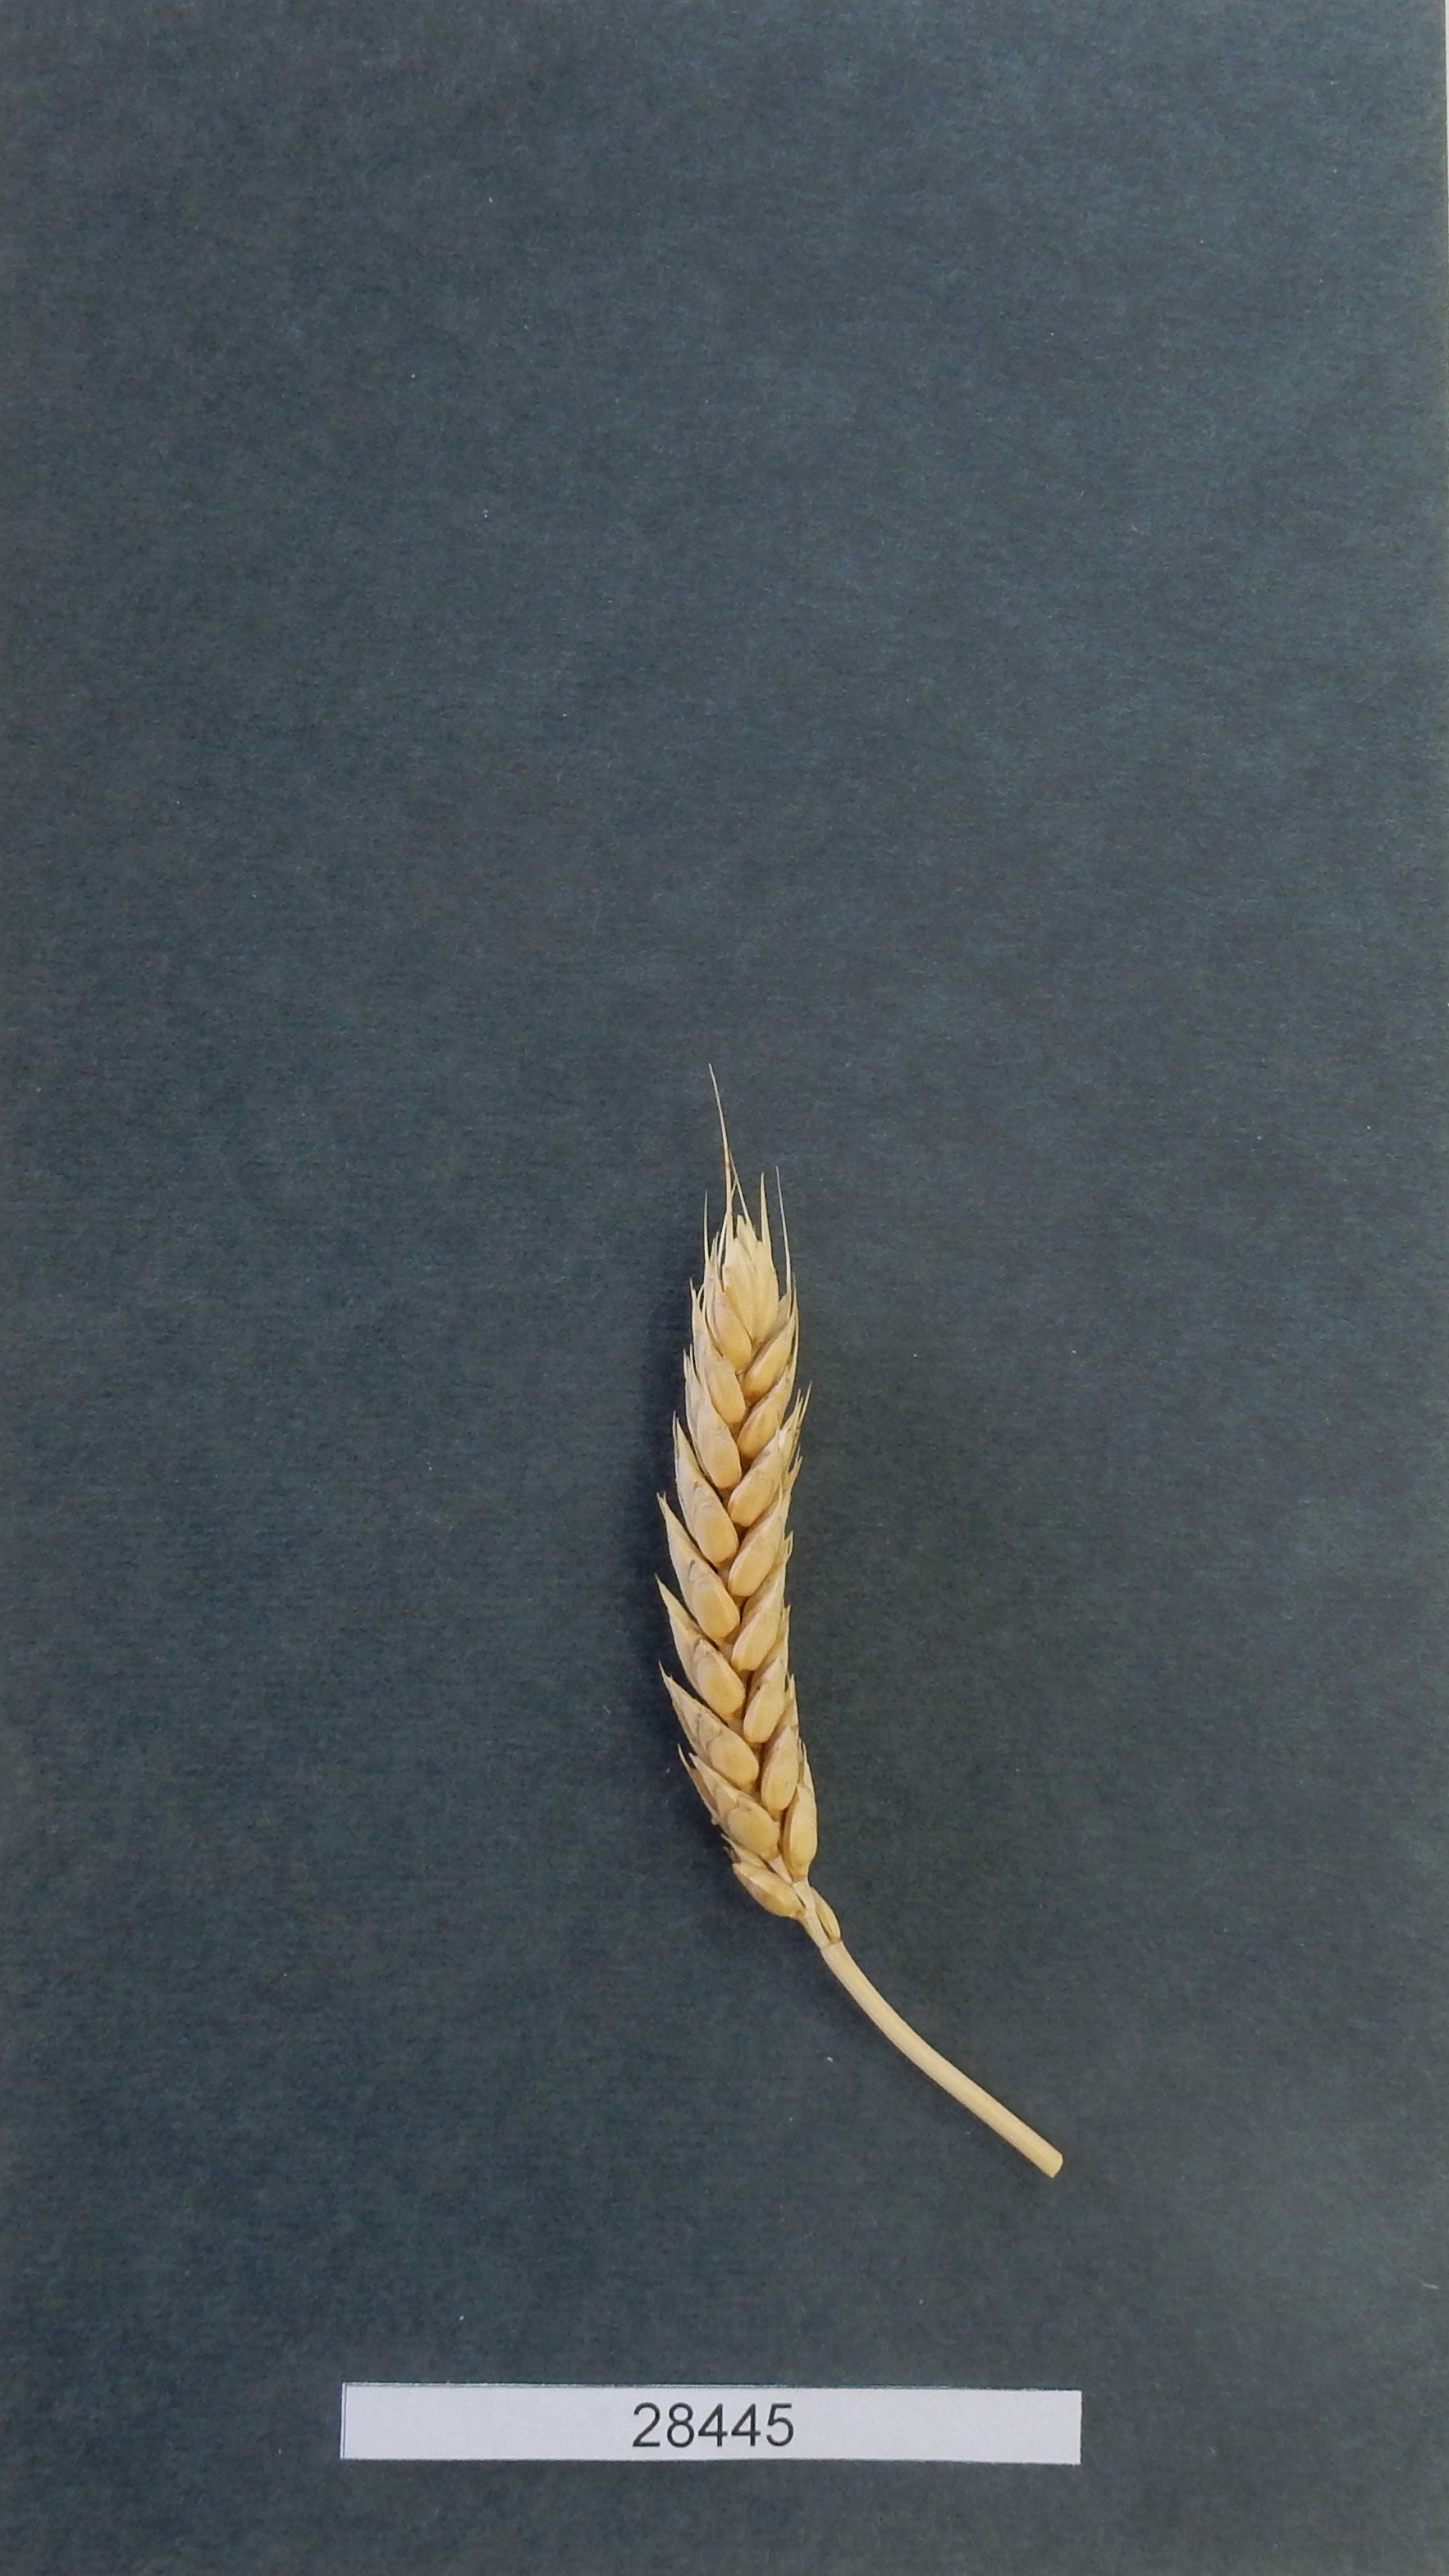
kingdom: Plantae
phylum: Tracheophyta
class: Liliopsida
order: Poales
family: Poaceae
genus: Triticum
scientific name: Triticum aestivum
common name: Common wheat
